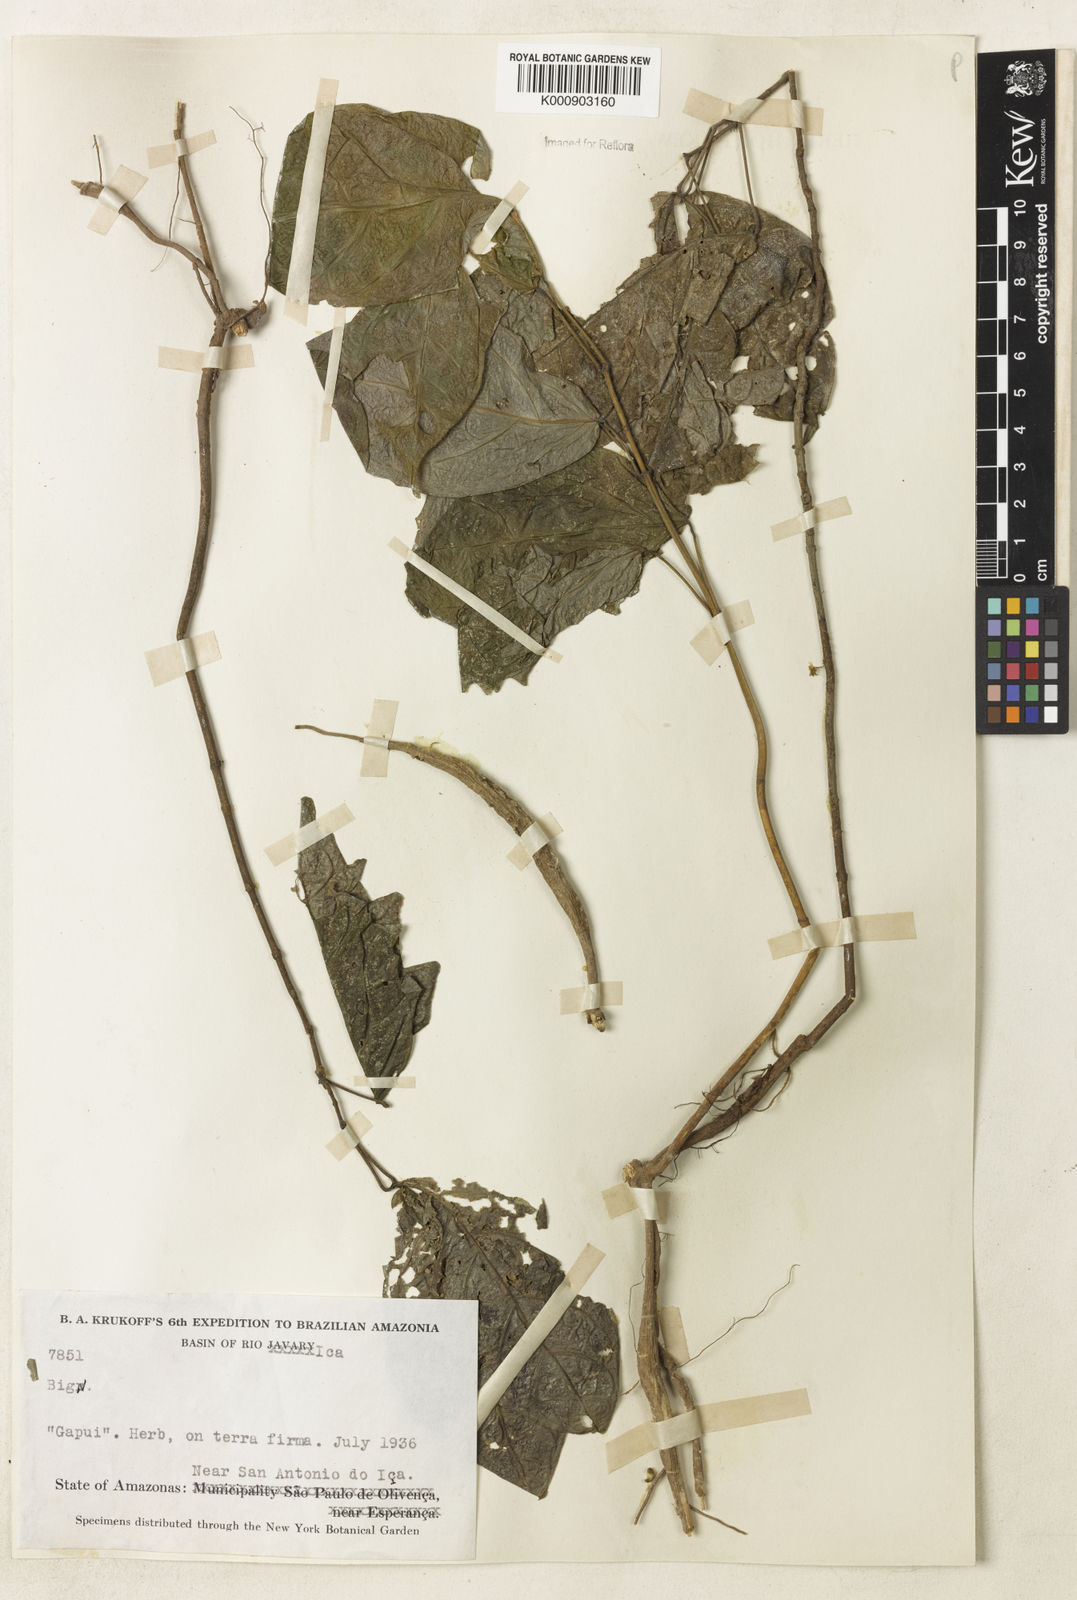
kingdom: Plantae
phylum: Tracheophyta
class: Magnoliopsida
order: Lamiales
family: Bignoniaceae
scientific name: Bignoniaceae
